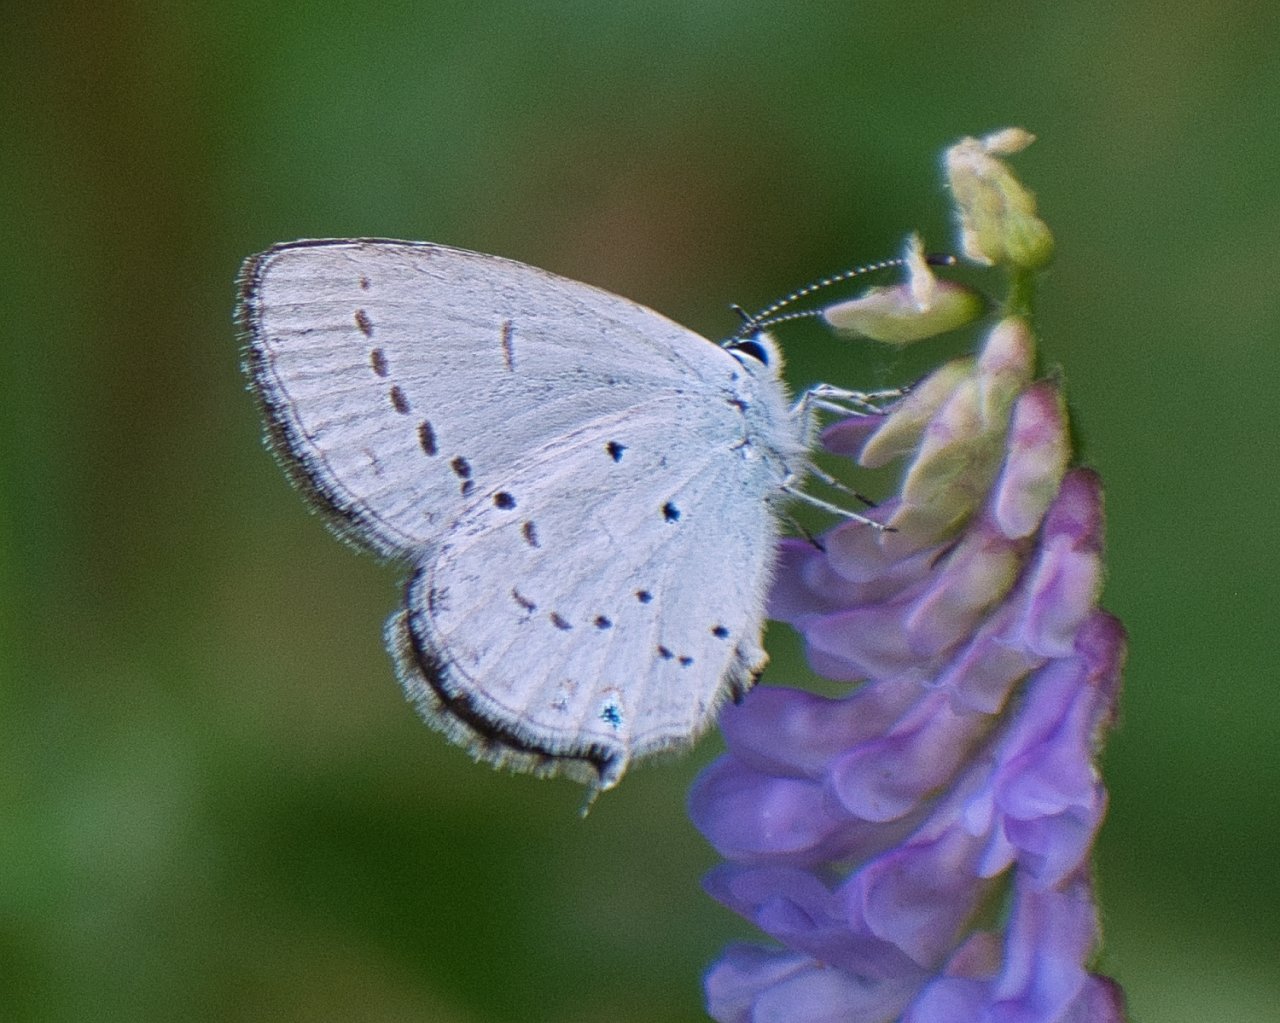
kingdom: Animalia
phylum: Arthropoda
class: Insecta
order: Lepidoptera
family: Lycaenidae
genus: Elkalyce
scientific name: Elkalyce amyntula
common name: Western Tailed-Blue
